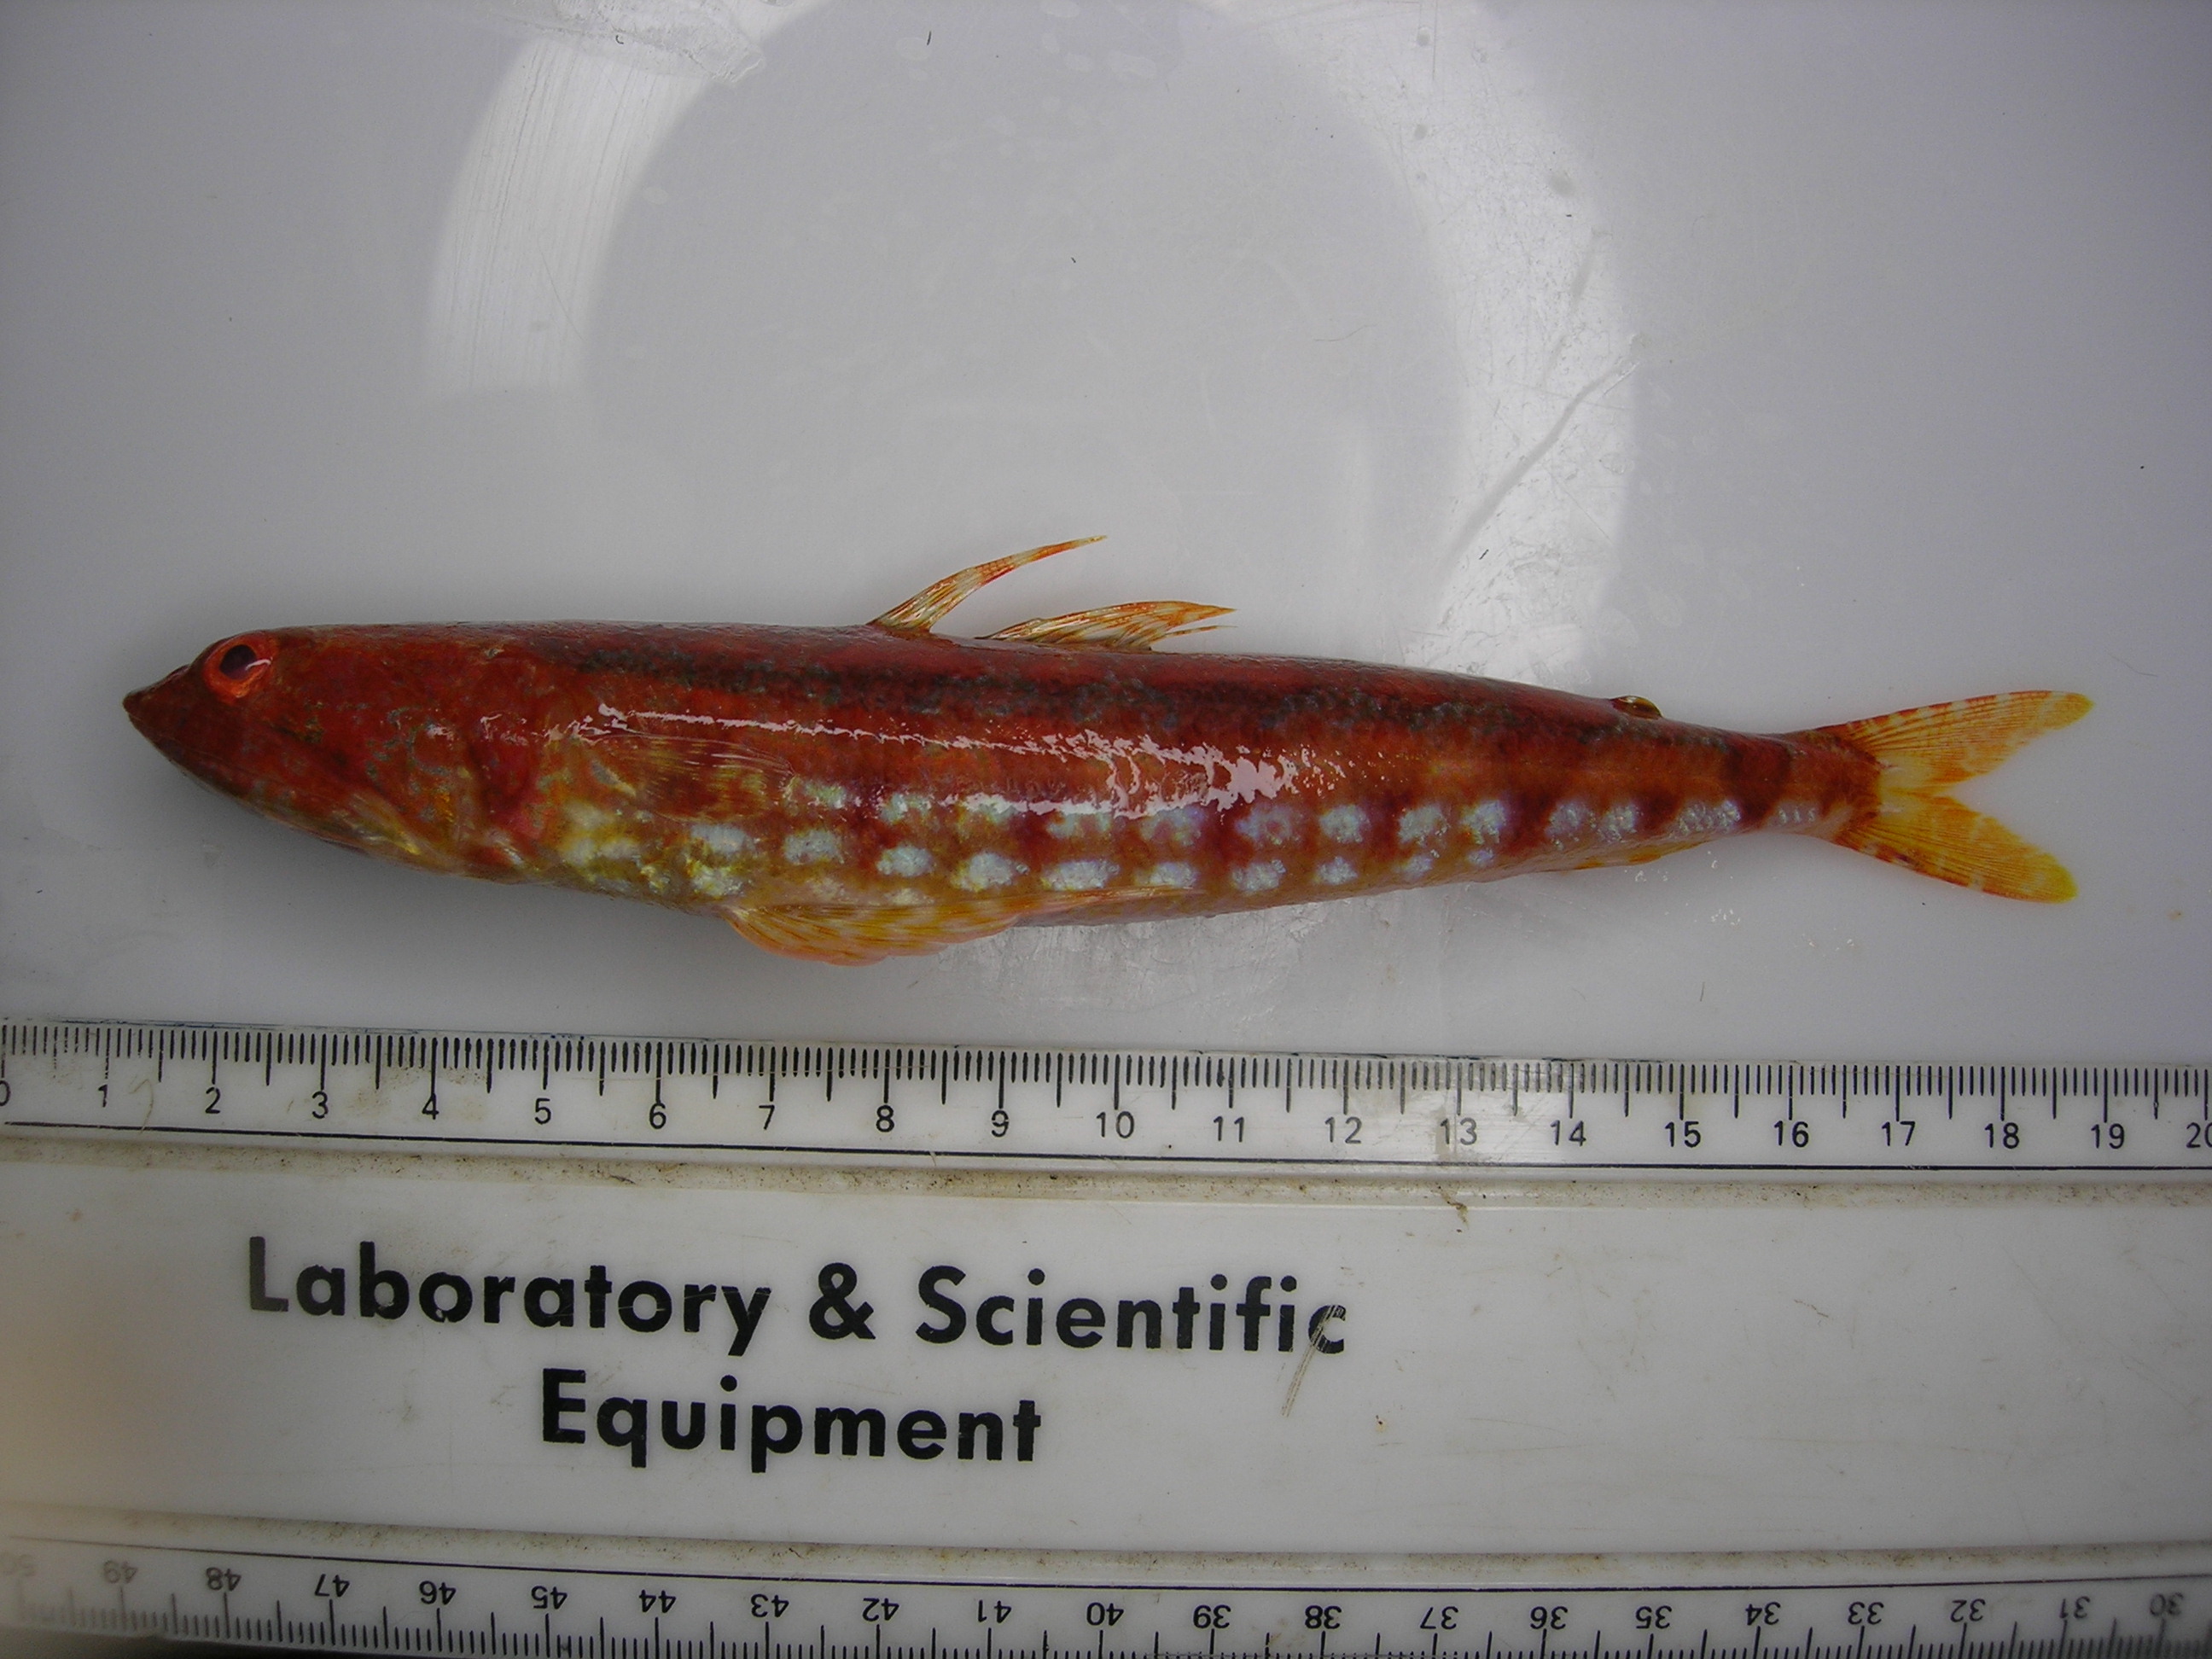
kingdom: Animalia
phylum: Chordata
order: Aulopiformes
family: Synodontidae
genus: Synodus
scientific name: Synodus variegatus
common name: Variegated lizardfish
